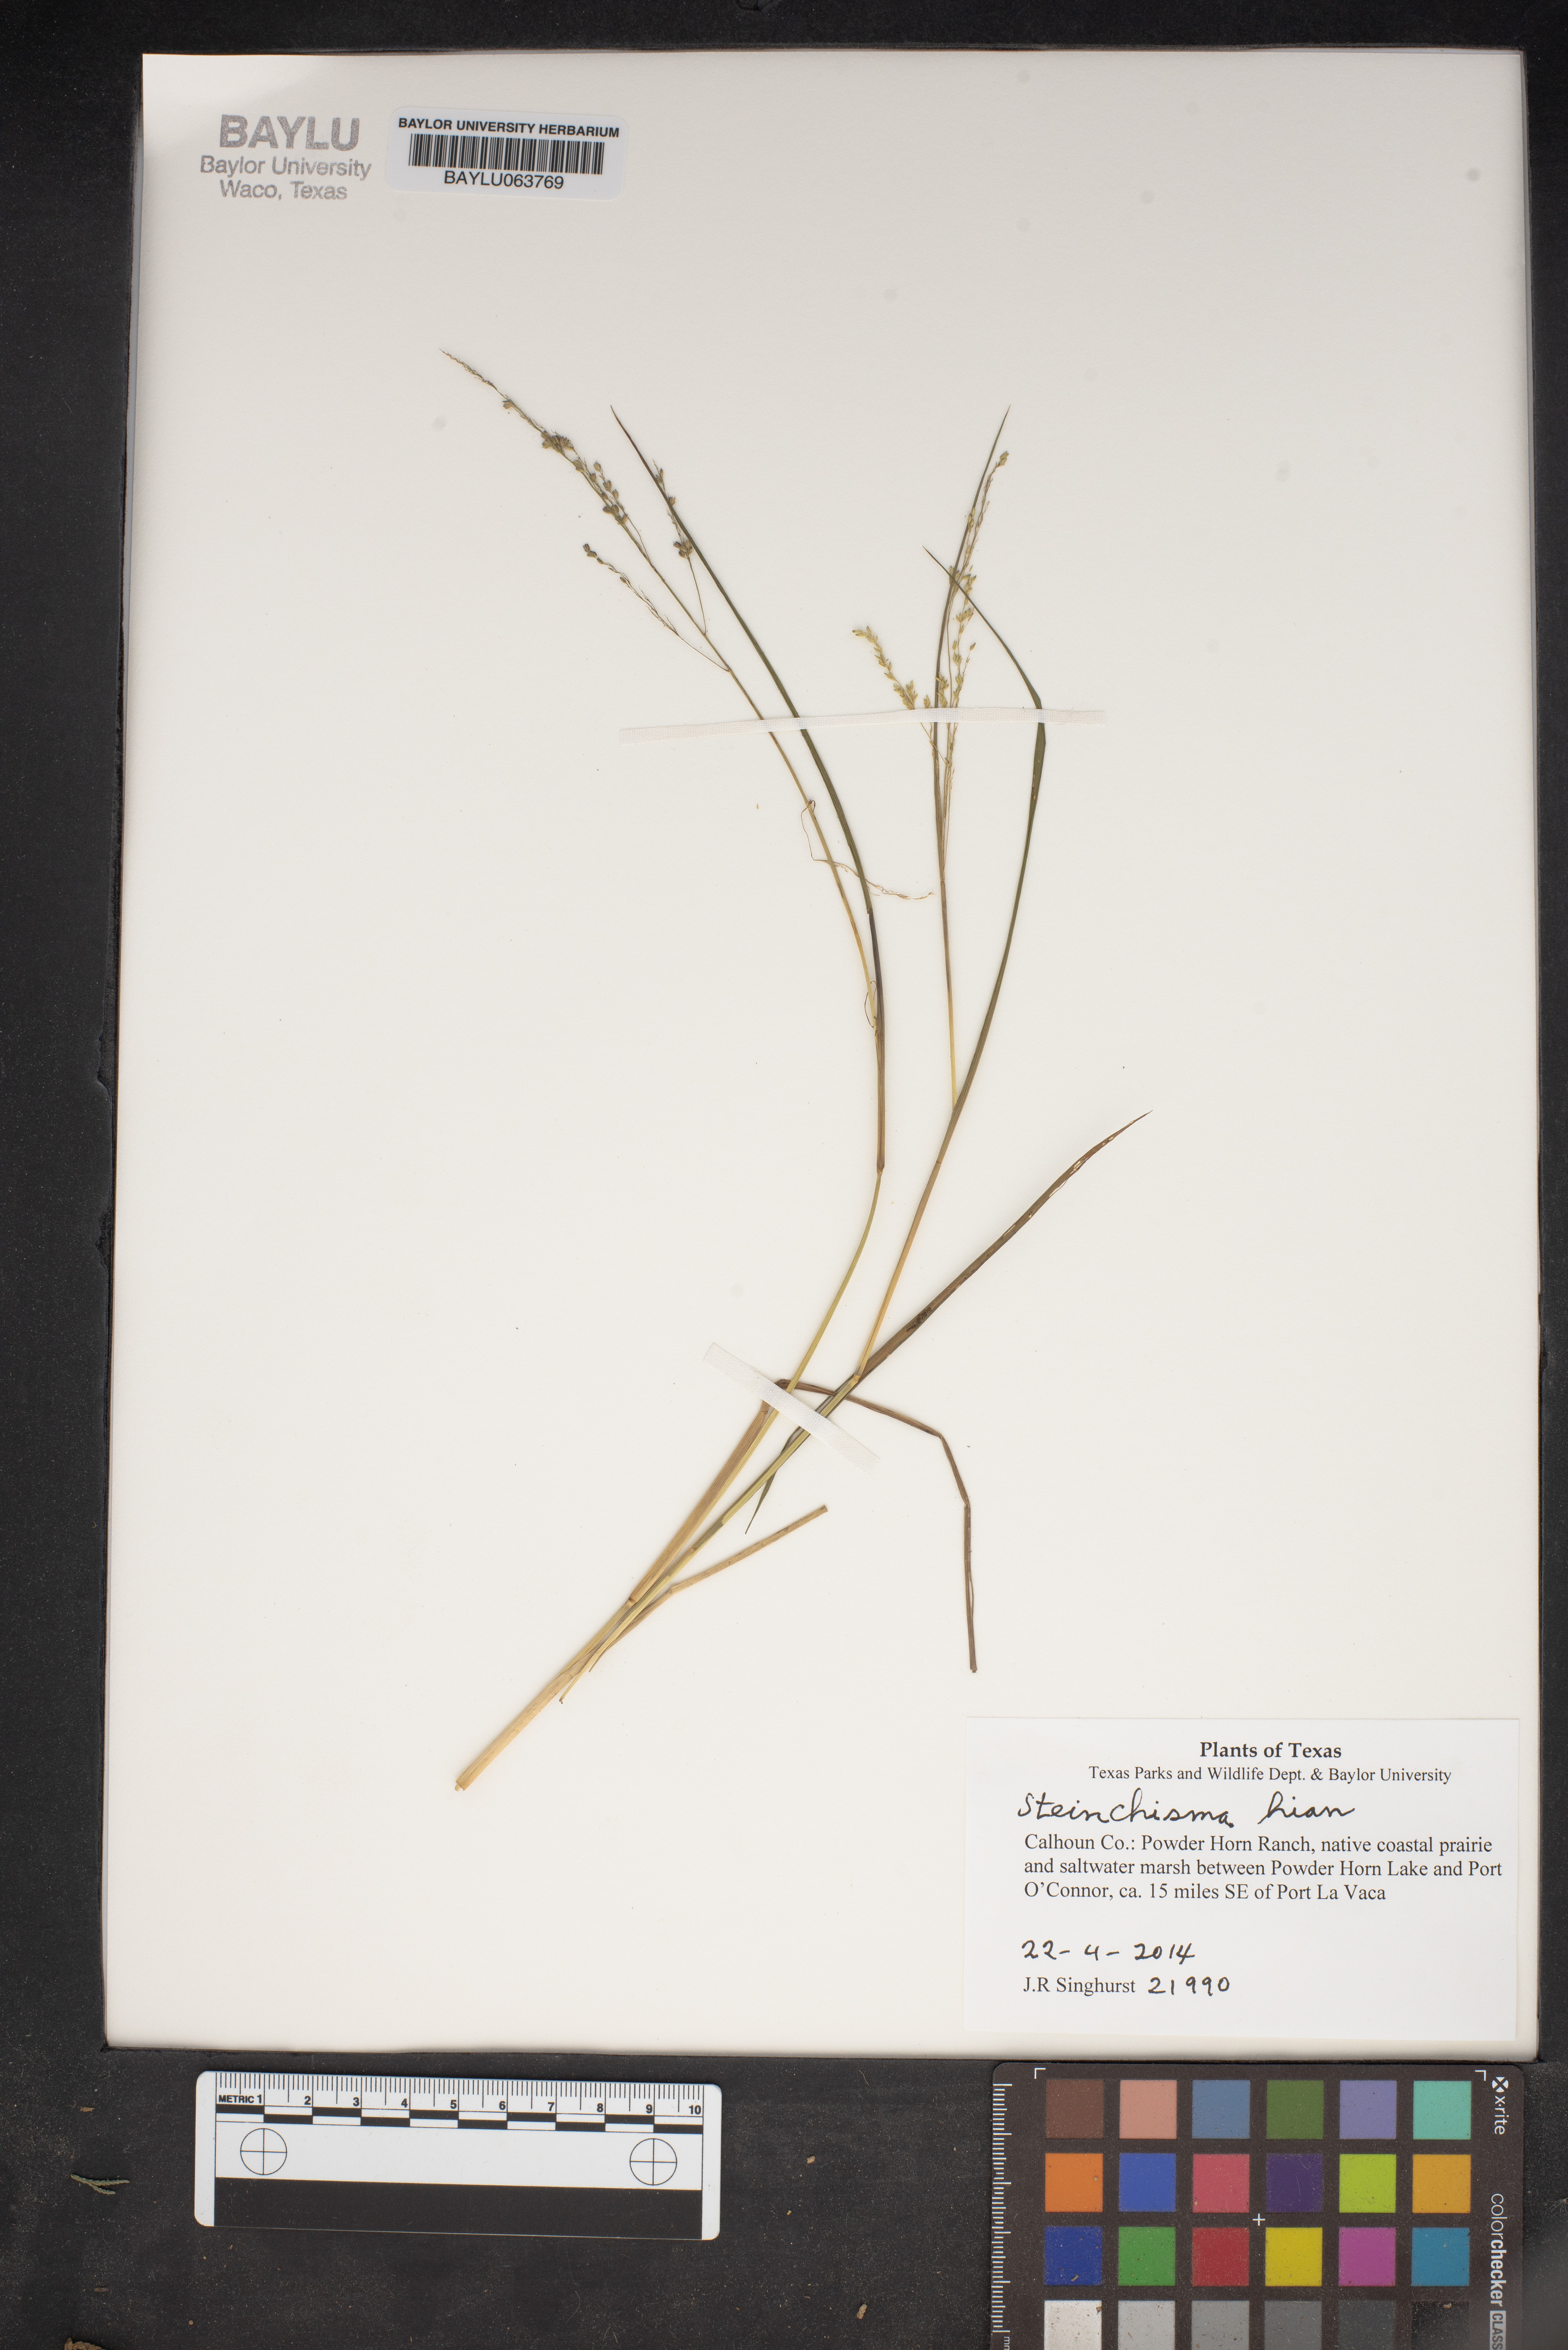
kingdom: Plantae
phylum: Tracheophyta
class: Liliopsida
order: Poales
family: Poaceae
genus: Steinchisma
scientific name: Steinchisma hians
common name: Gaping panic grass
